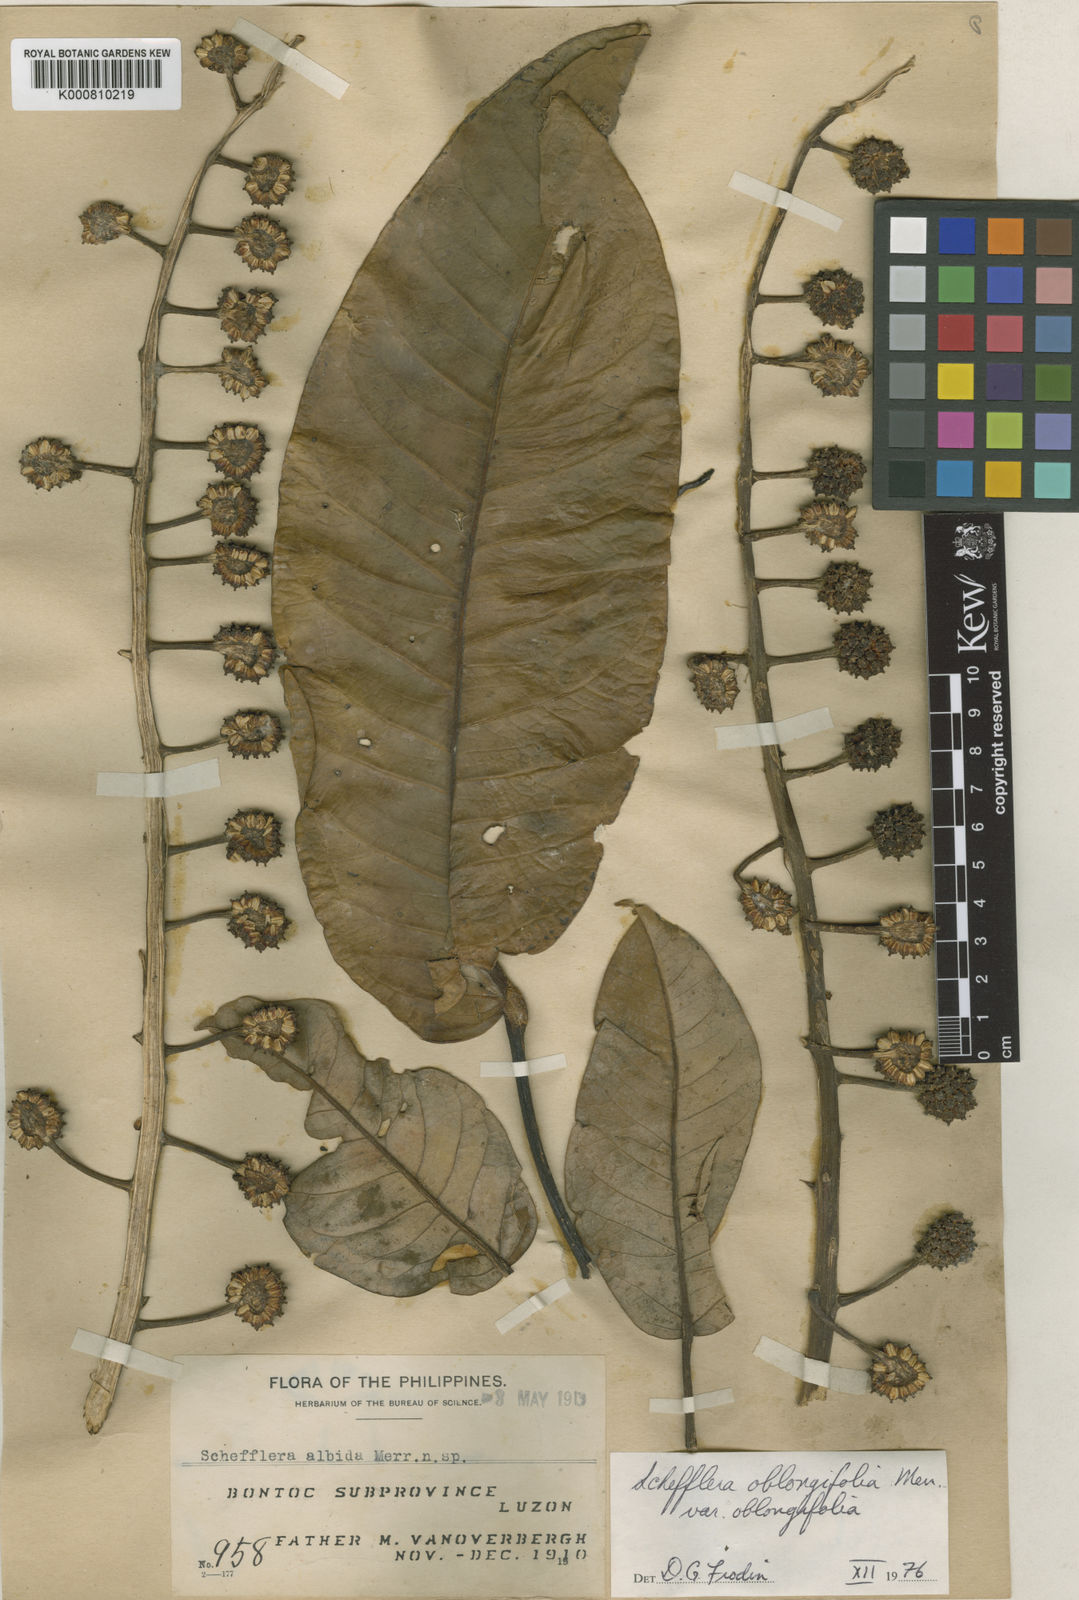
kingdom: Plantae
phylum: Tracheophyta
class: Magnoliopsida
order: Apiales
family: Araliaceae
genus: Heptapleurum
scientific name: Heptapleurum oblongifolium
